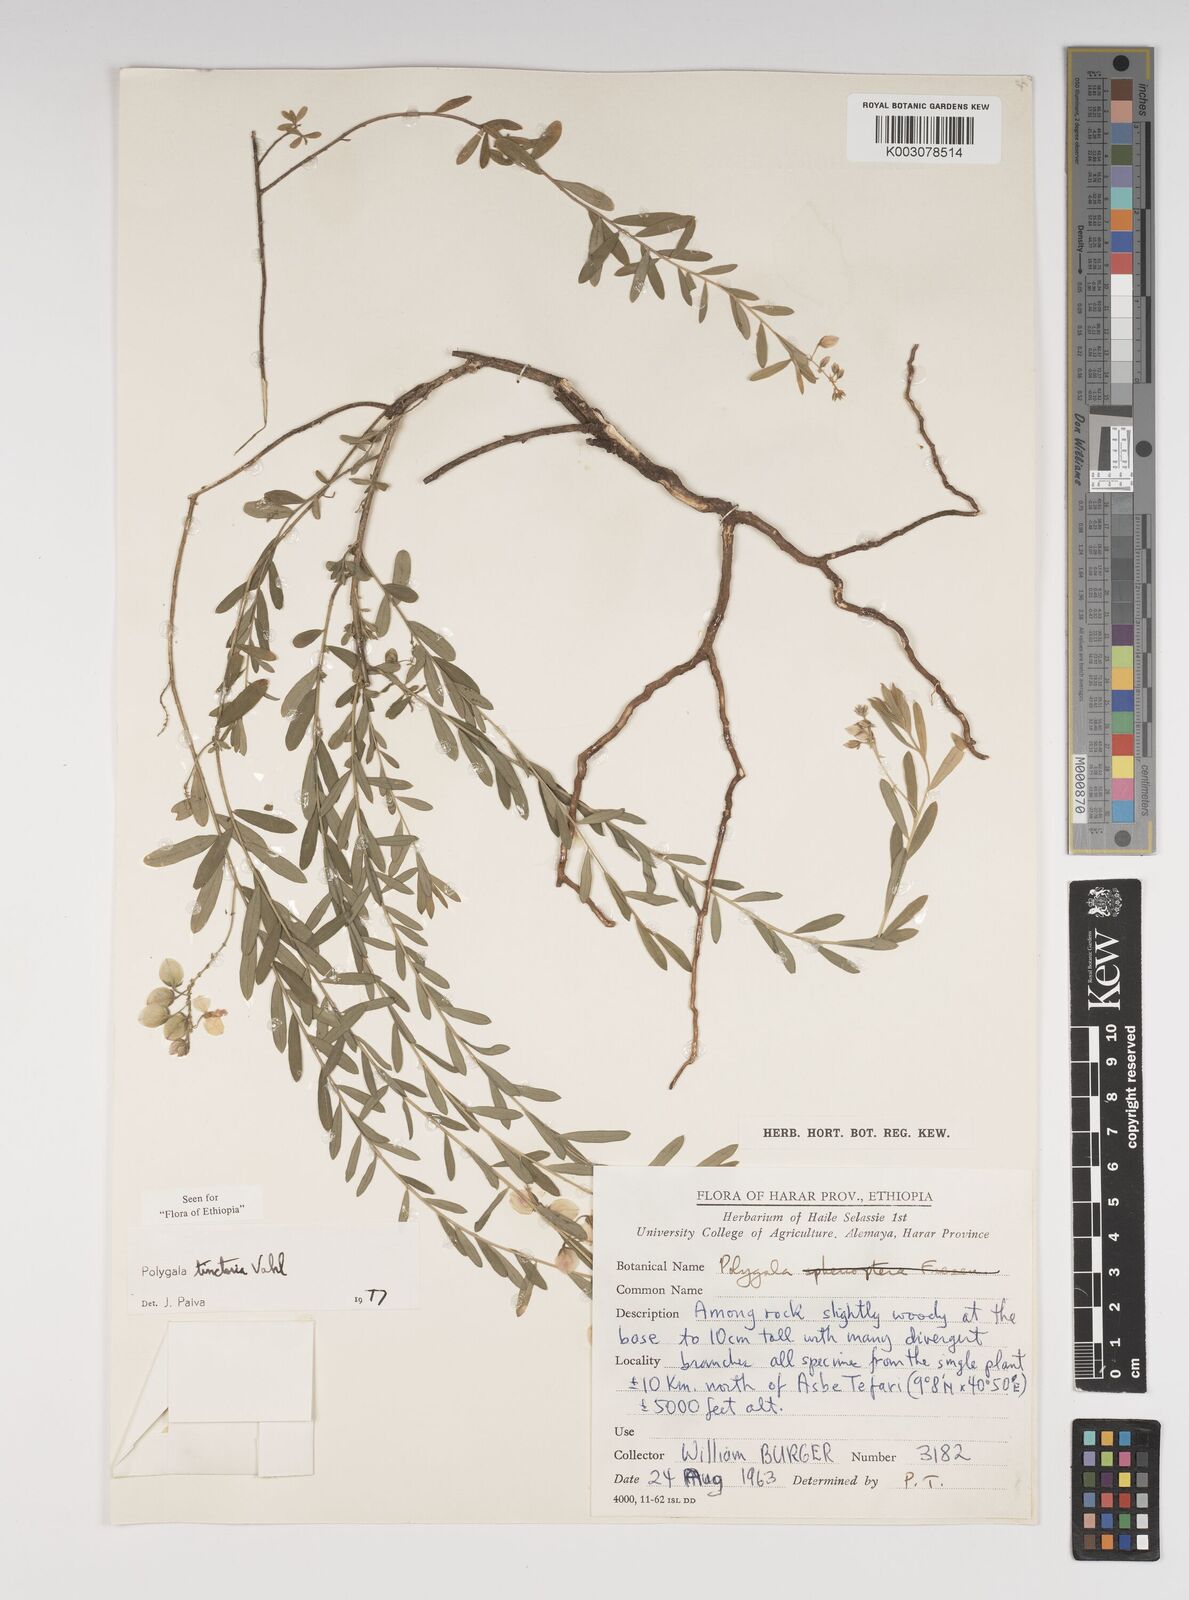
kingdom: Plantae
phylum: Tracheophyta
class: Magnoliopsida
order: Fabales
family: Polygalaceae
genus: Polygala
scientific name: Polygala tinctoria
